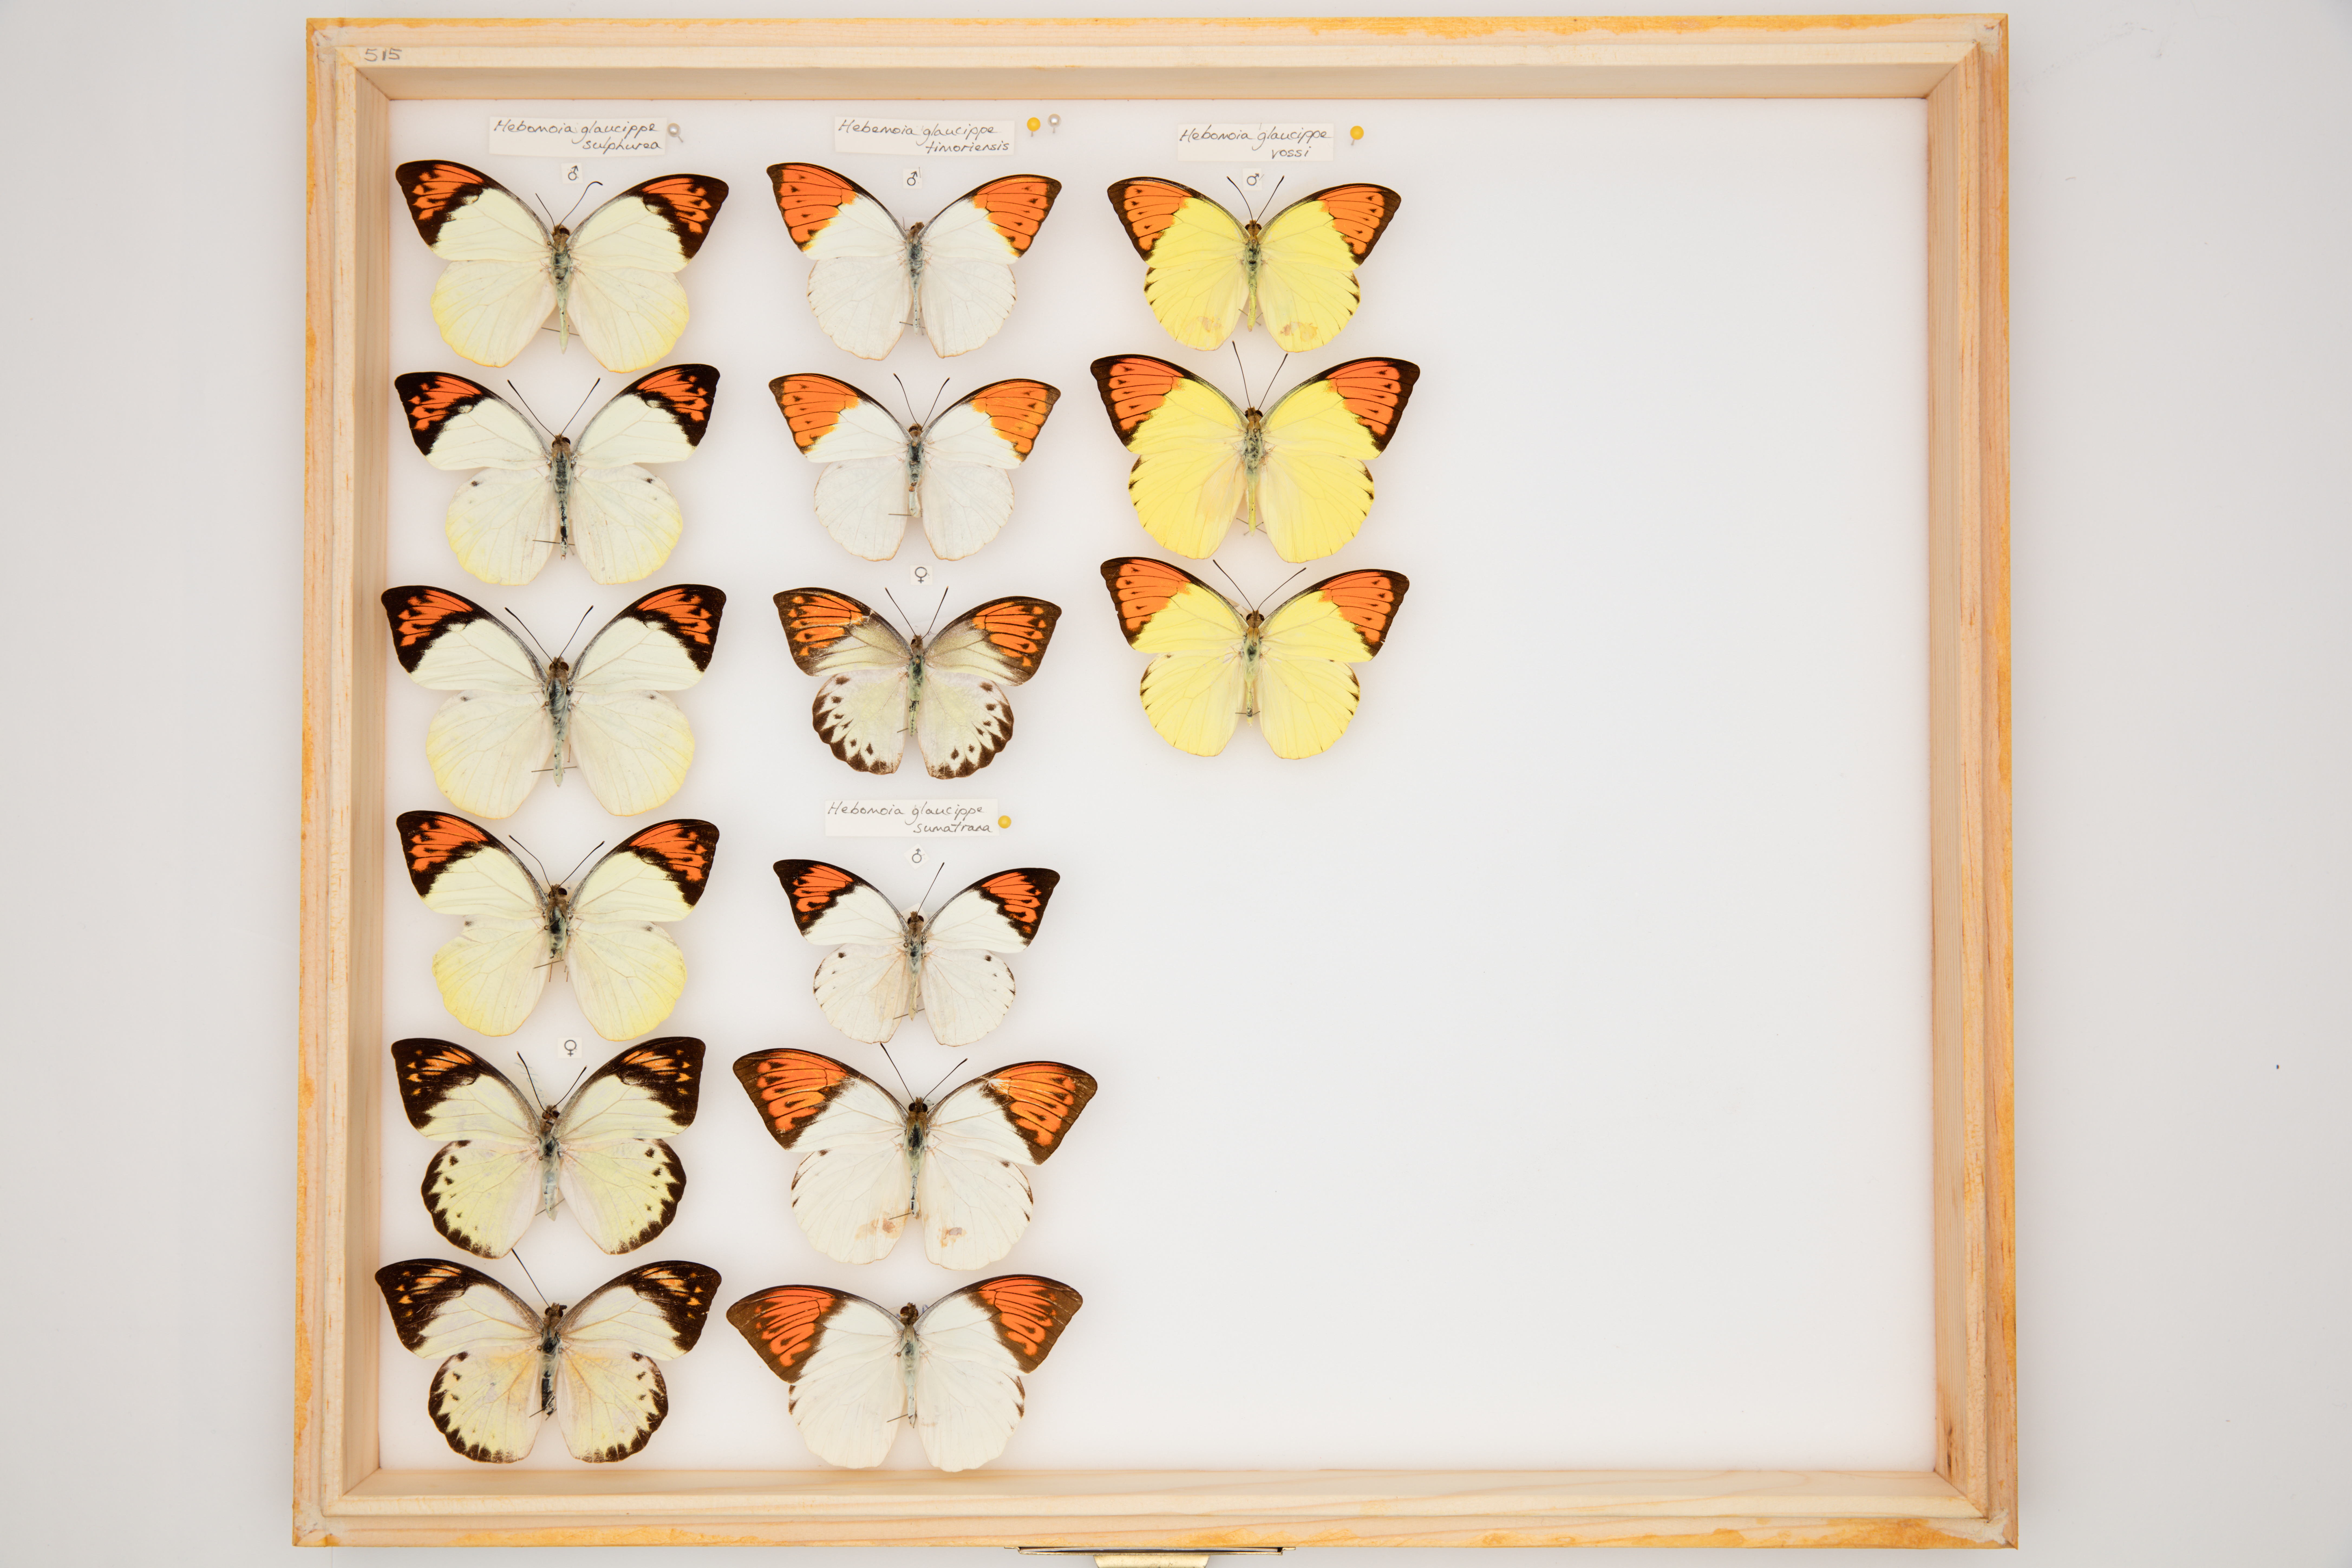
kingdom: Animalia
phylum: Arthropoda
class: Insecta
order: Lepidoptera
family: Pieridae
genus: Hebomoia
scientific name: Hebomoia glaucippe
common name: Great orange tip
